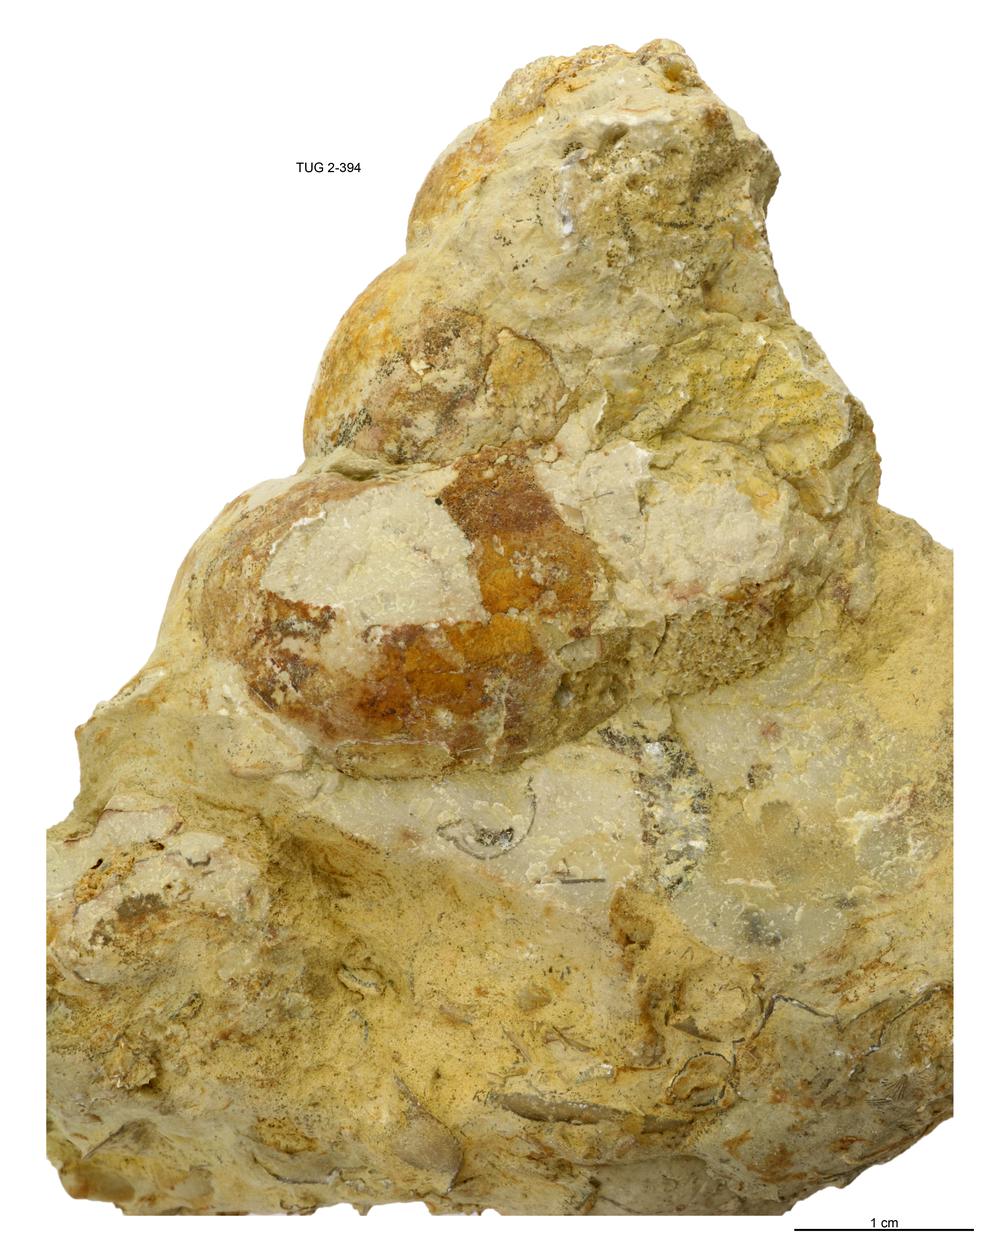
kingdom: Animalia
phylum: Mollusca
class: Gastropoda
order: Pleurotomariida
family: Murchisoniidae
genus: Murchisonia
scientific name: Murchisonia insignis
